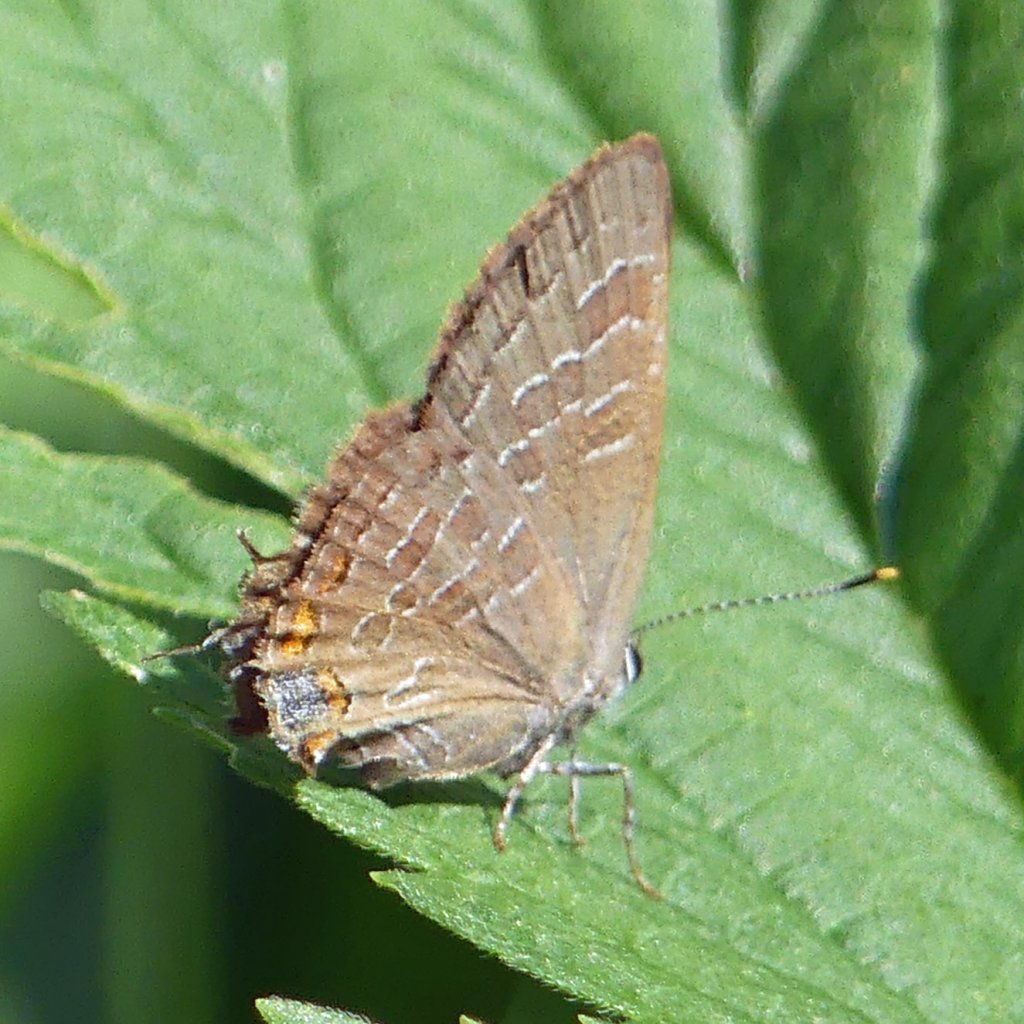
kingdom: Animalia
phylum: Arthropoda
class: Insecta
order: Lepidoptera
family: Lycaenidae
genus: Satyrium
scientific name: Satyrium liparops
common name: Striped Hairstreak
